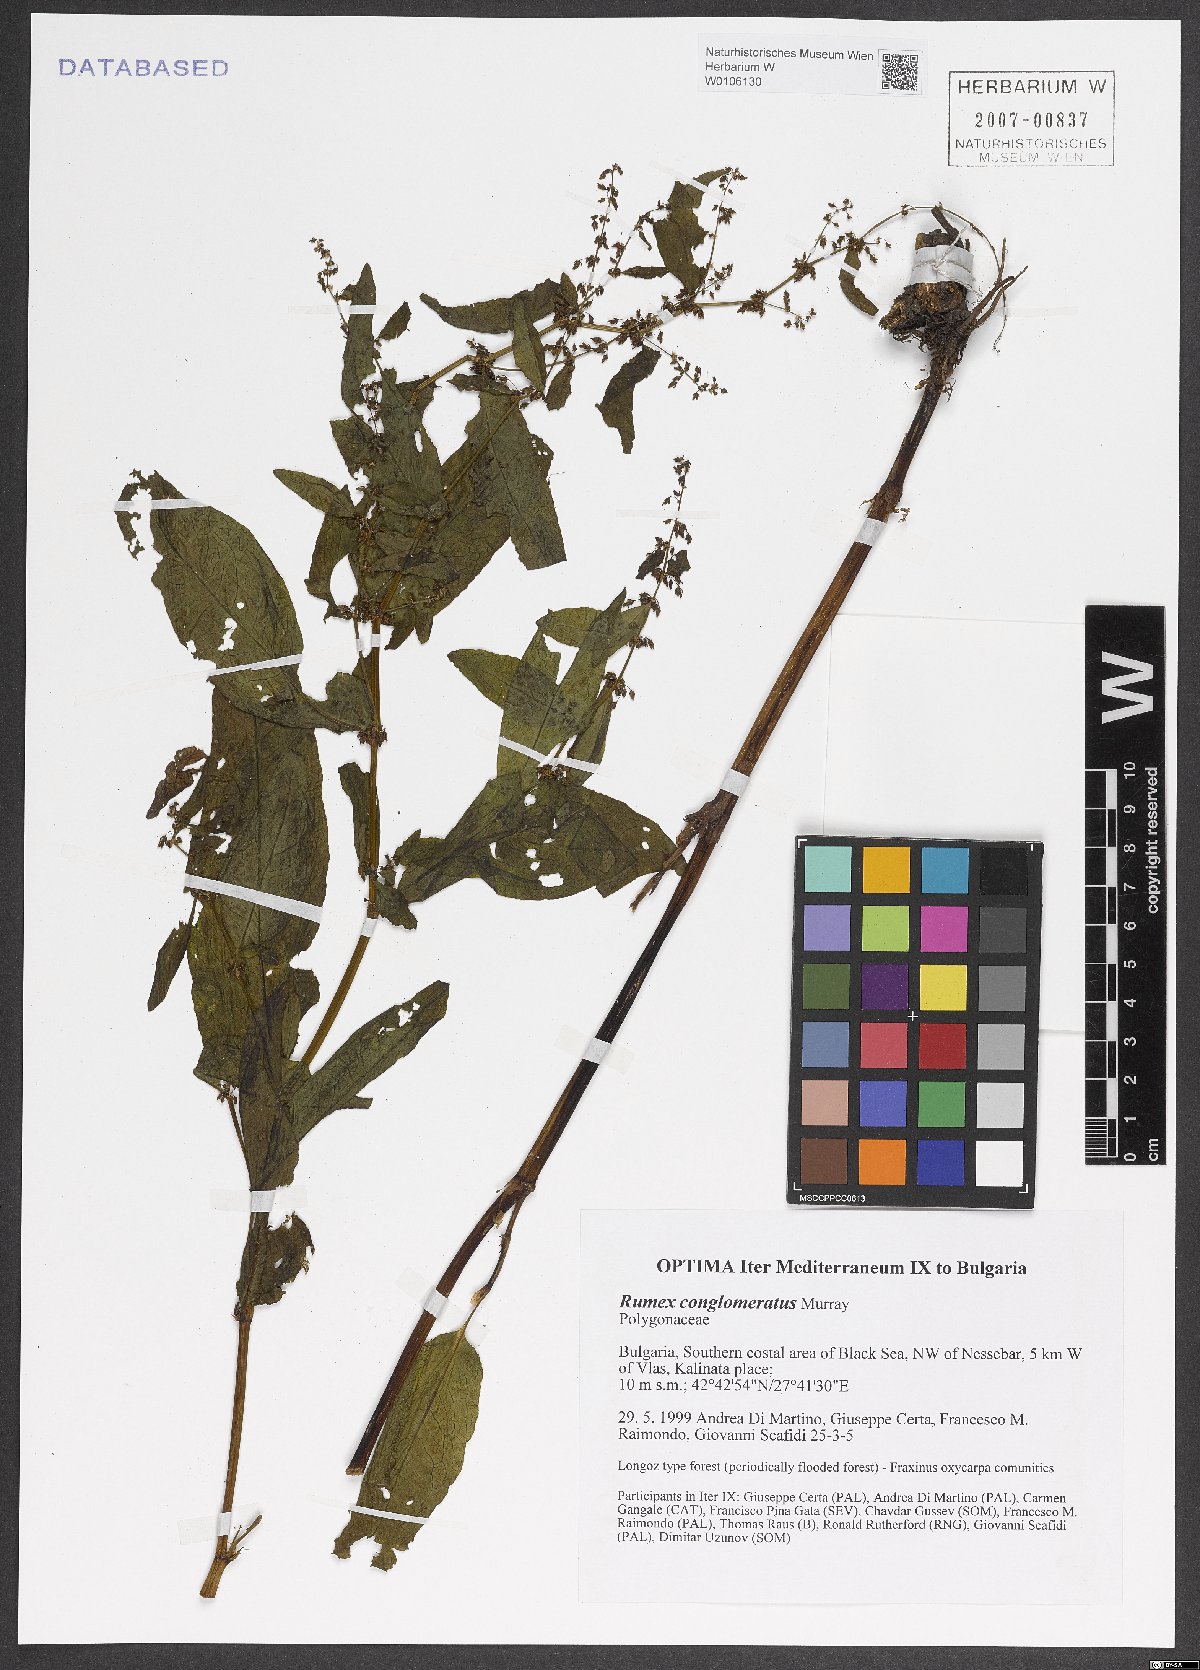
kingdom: Plantae
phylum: Tracheophyta
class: Magnoliopsida
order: Caryophyllales
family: Polygonaceae
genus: Rumex
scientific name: Rumex conglomeratus
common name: Clustered dock
